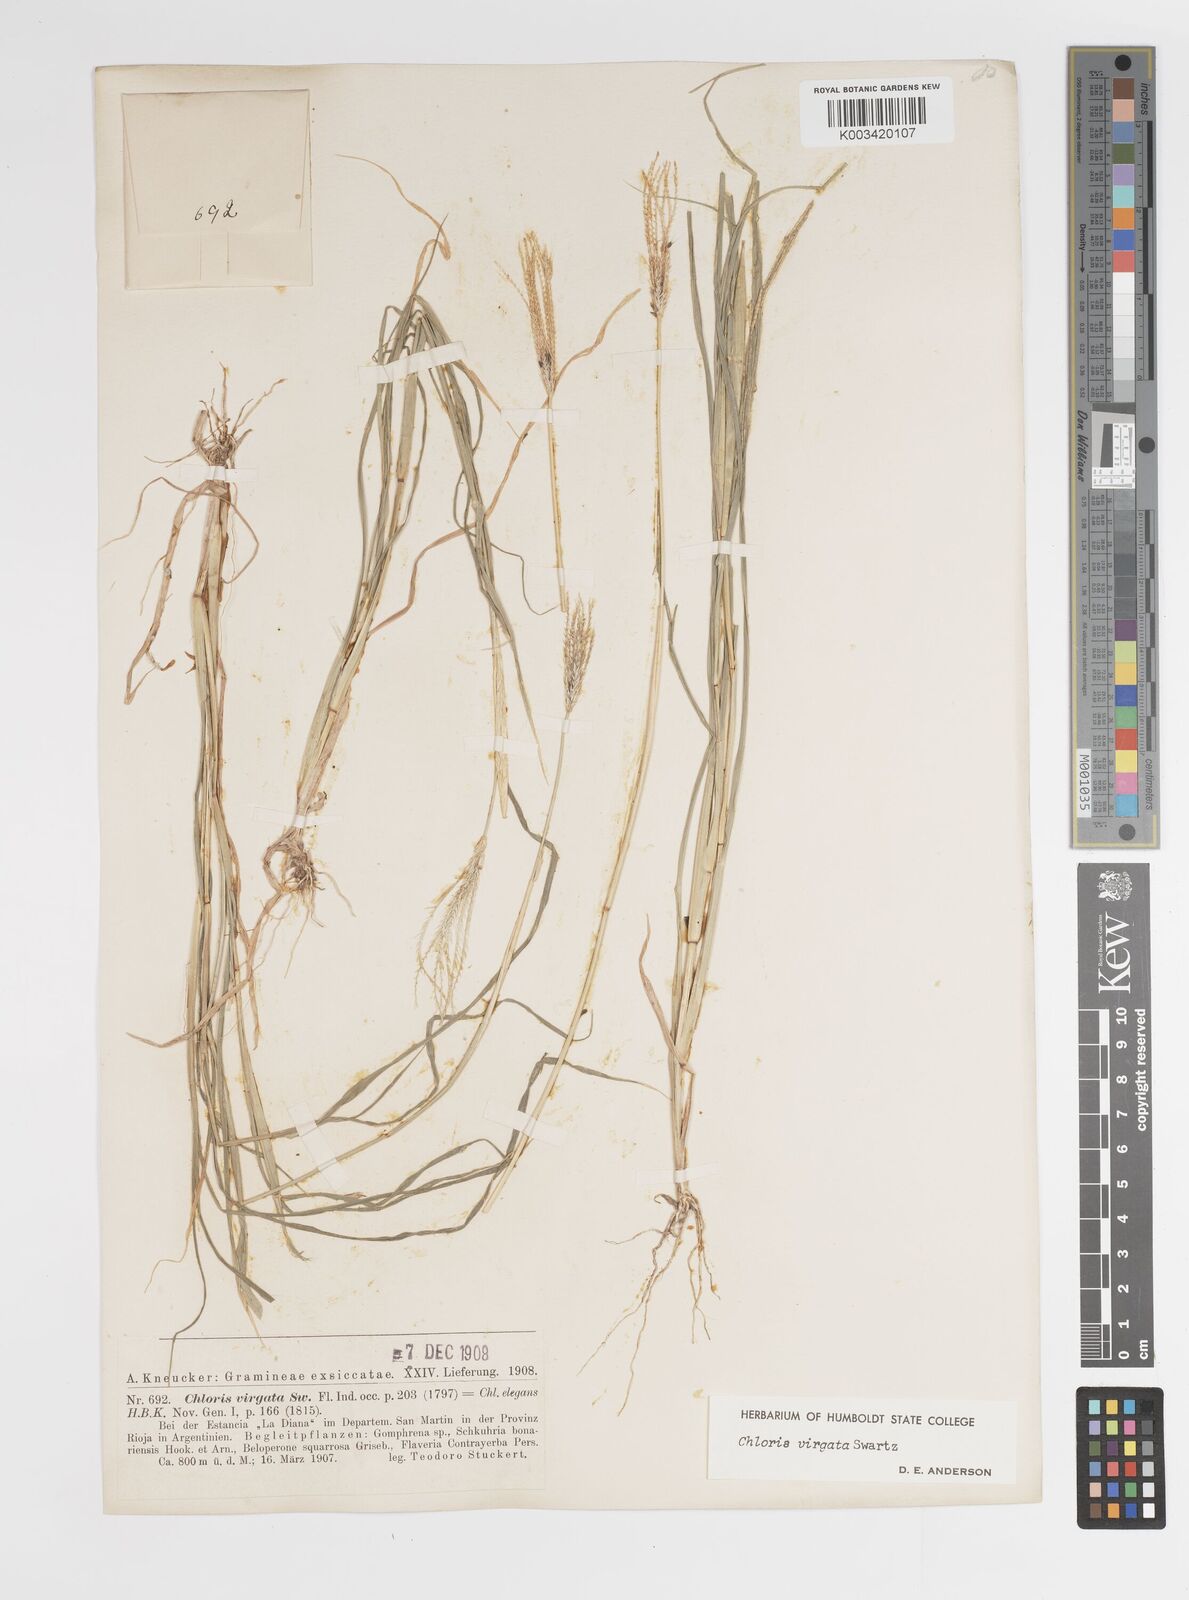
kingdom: Plantae
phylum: Tracheophyta
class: Liliopsida
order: Poales
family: Poaceae
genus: Chloris
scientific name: Chloris virgata
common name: Feathery rhodes-grass
